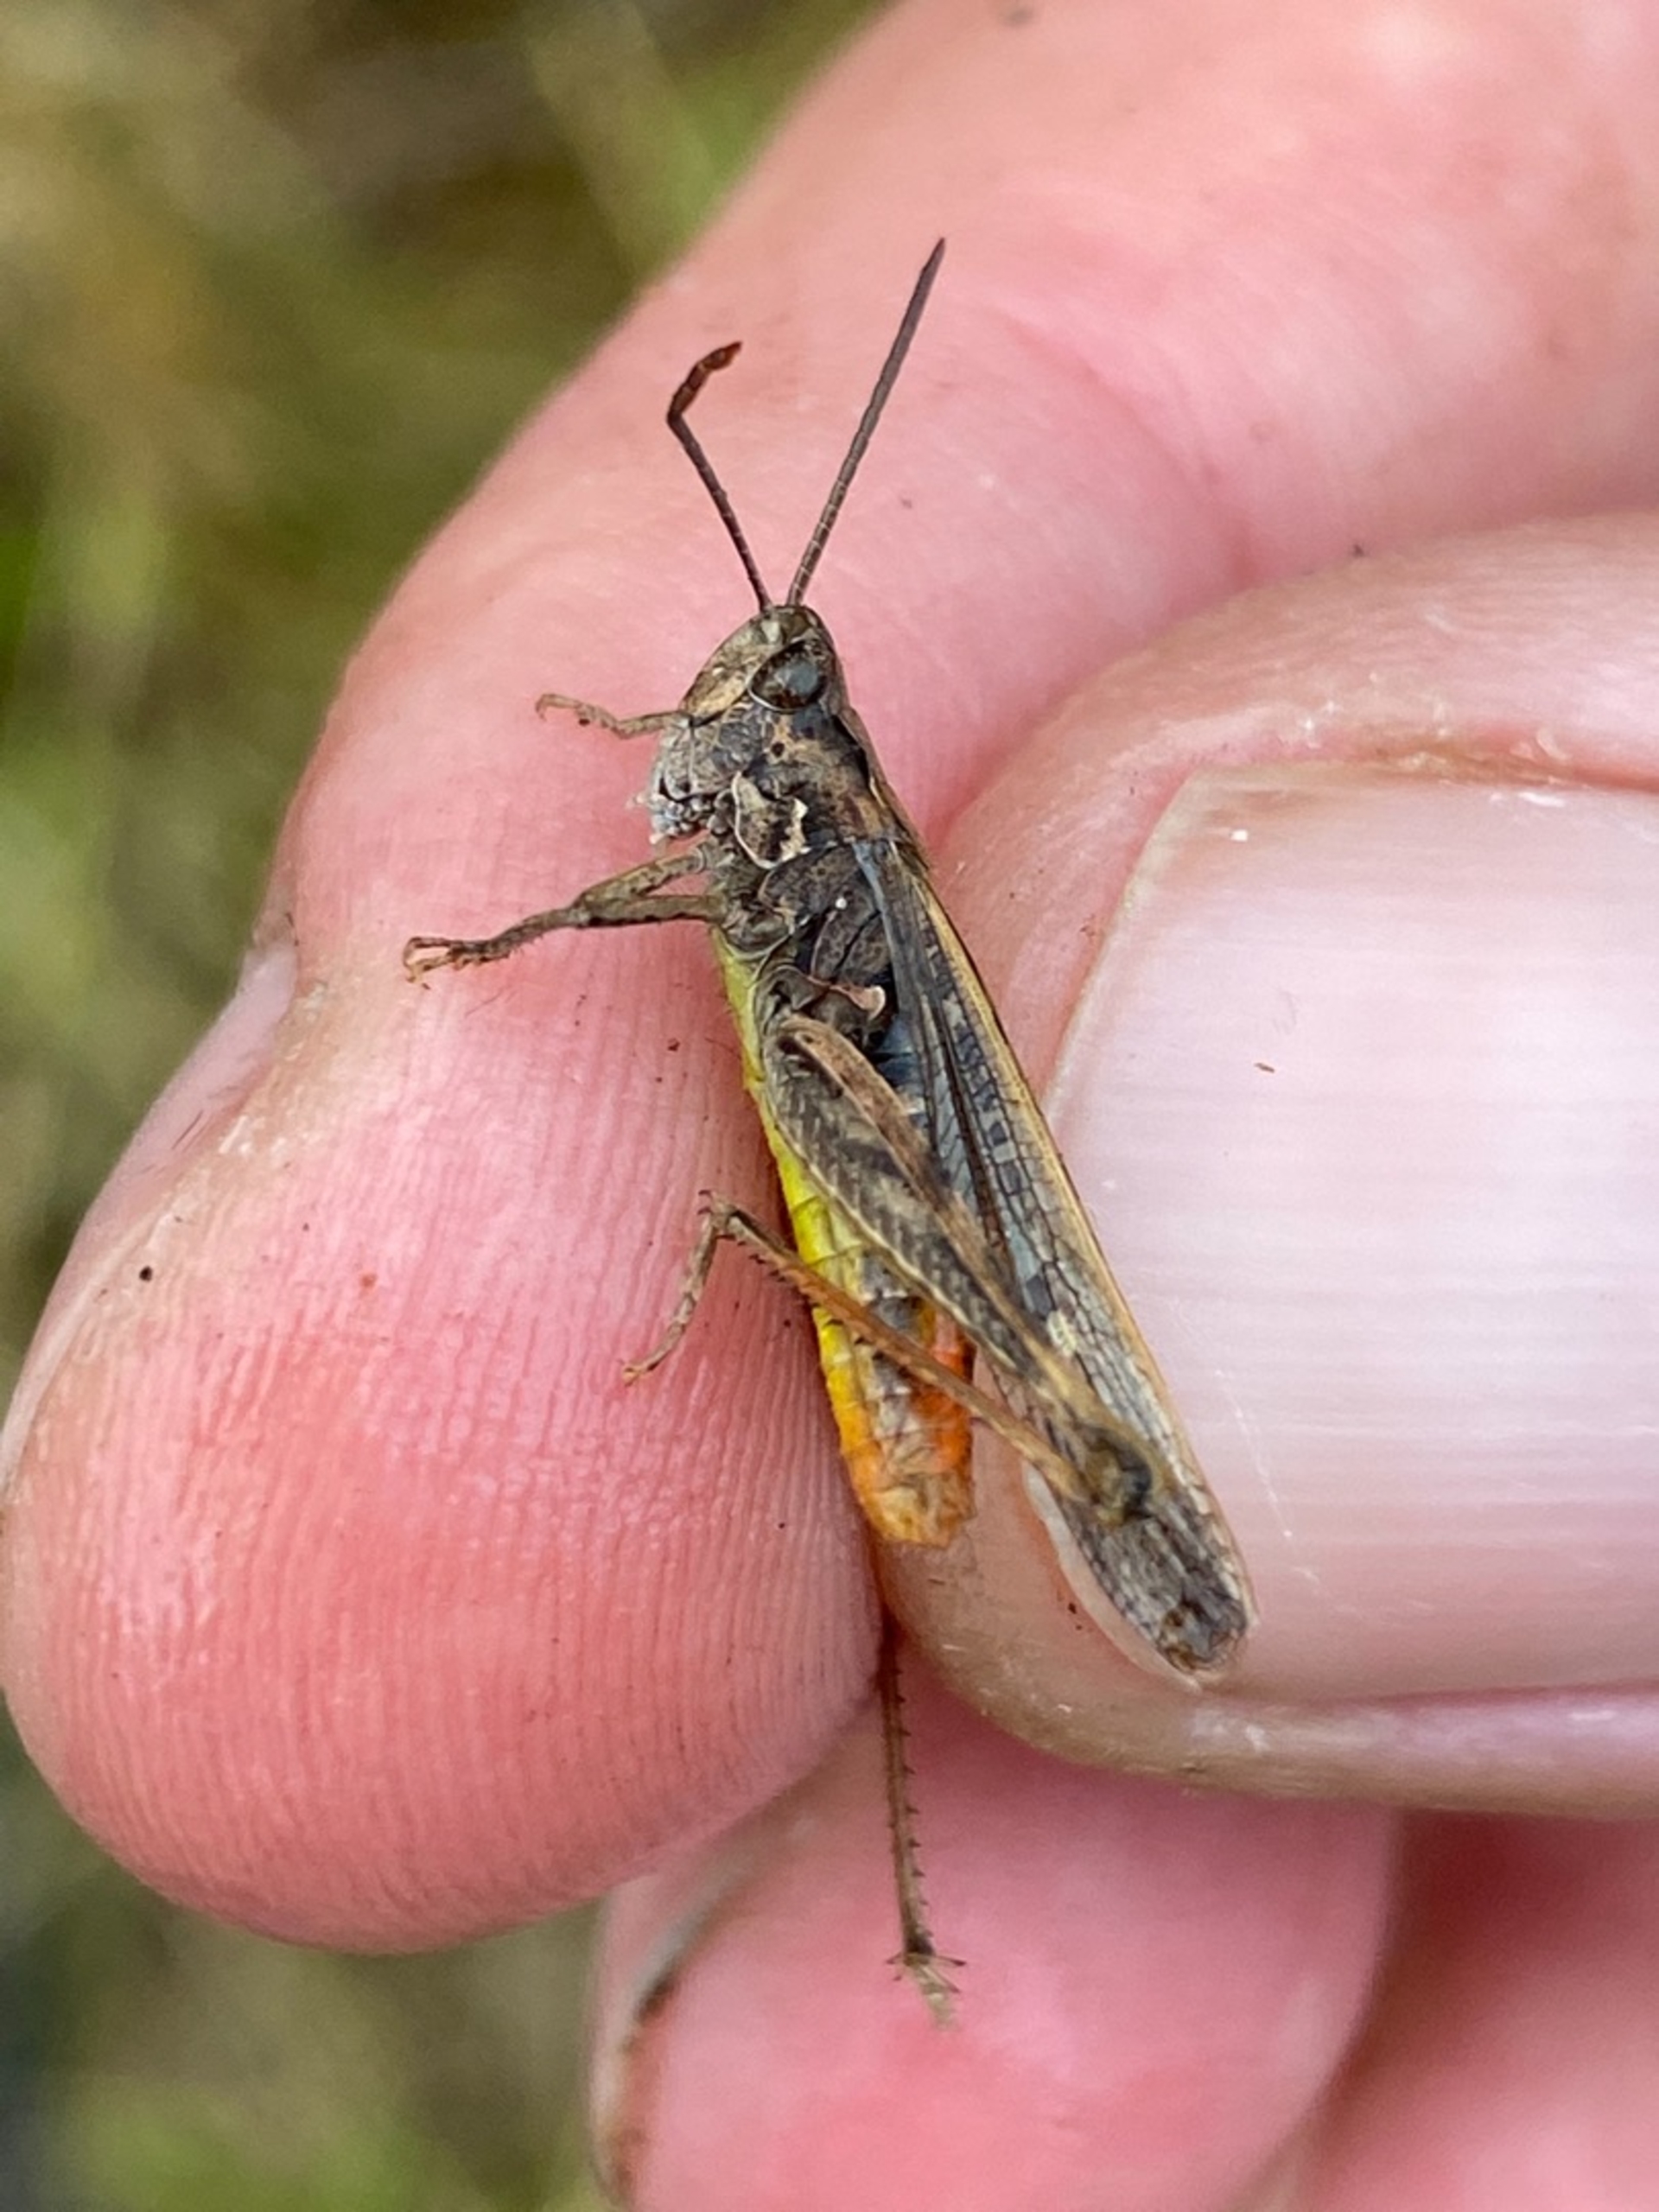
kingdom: Animalia
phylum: Arthropoda
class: Insecta
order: Orthoptera
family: Acrididae
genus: Chorthippus
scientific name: Chorthippus brunneus
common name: Almindelig markgræshoppe
